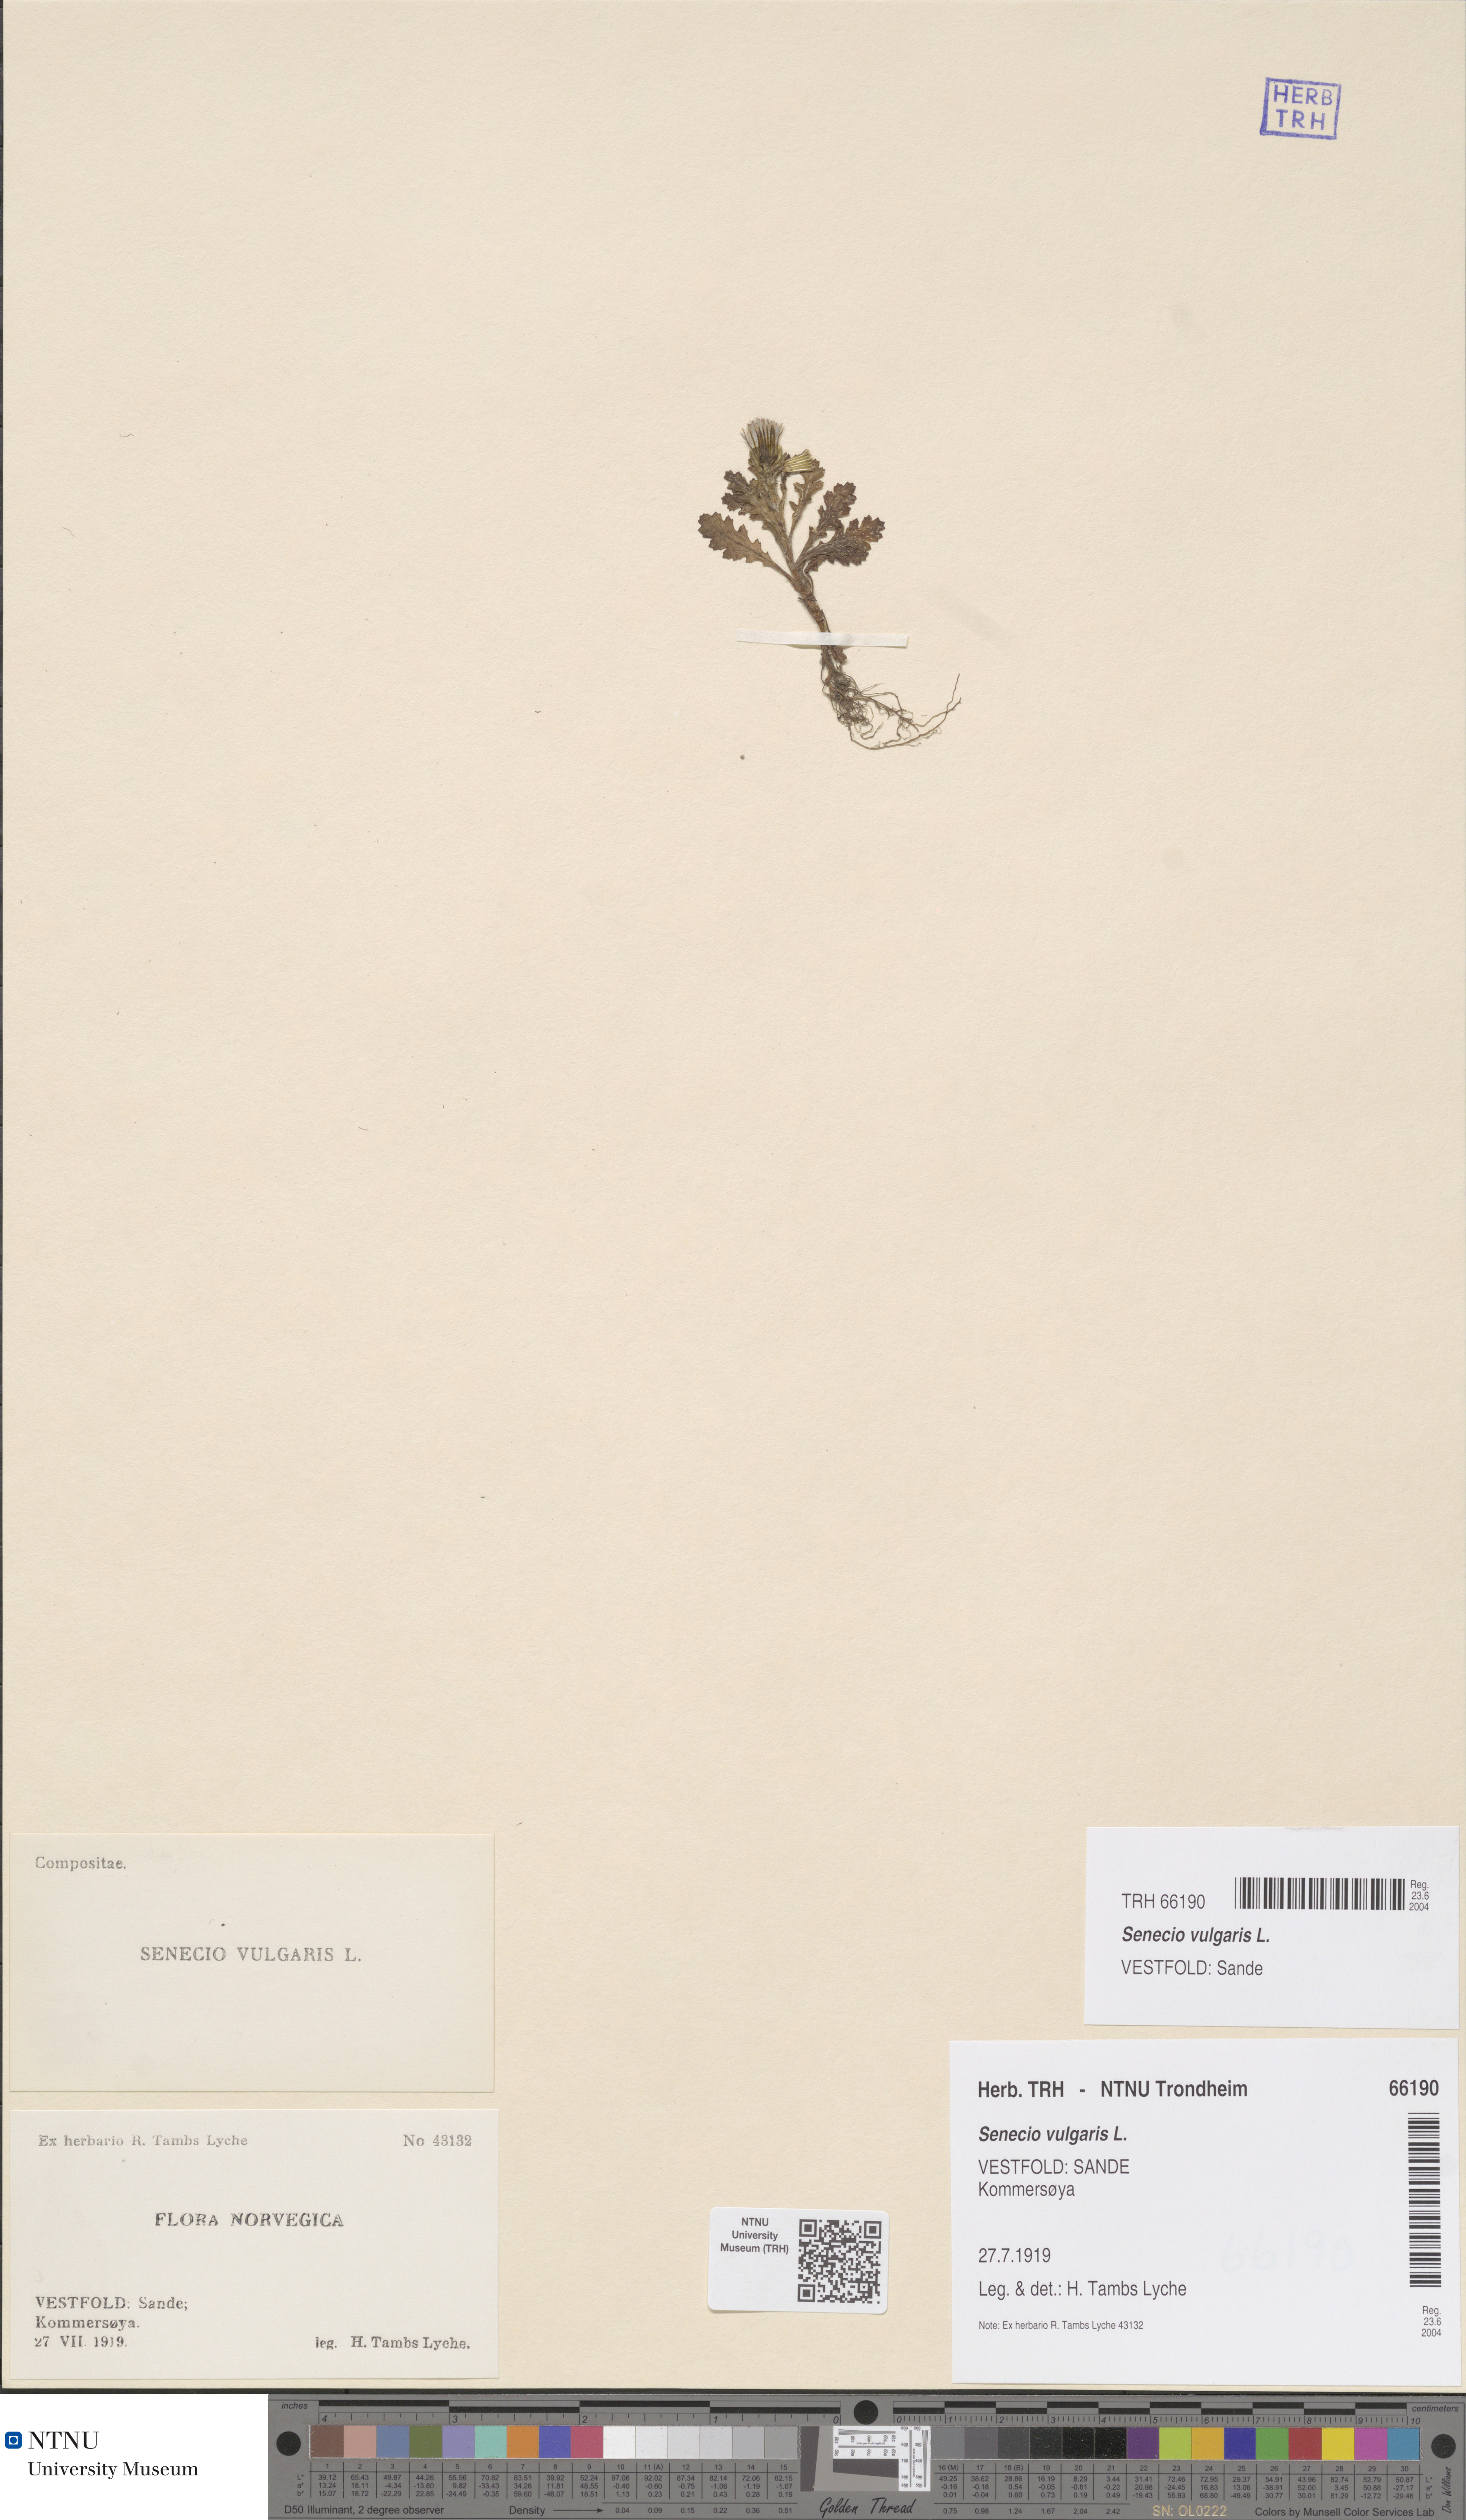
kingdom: Plantae
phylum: Tracheophyta
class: Magnoliopsida
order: Asterales
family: Asteraceae
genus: Senecio
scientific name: Senecio vulgaris
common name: Old-man-in-the-spring
